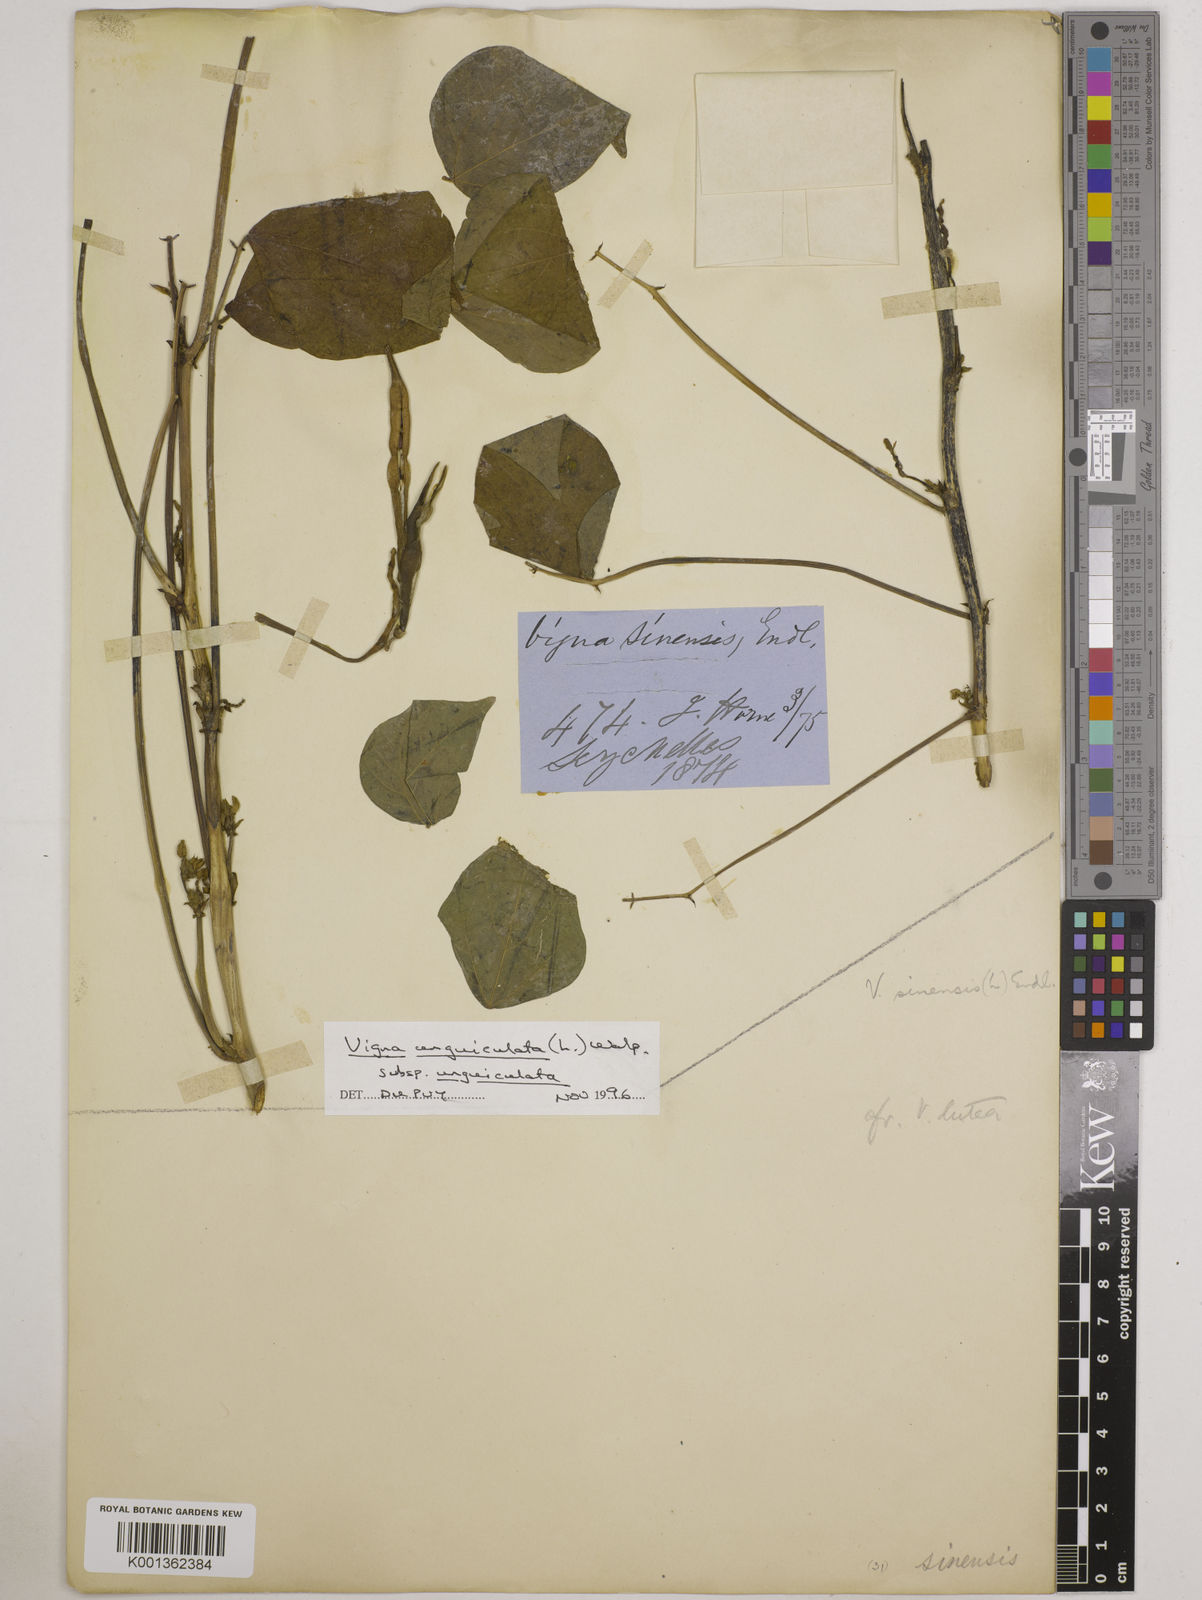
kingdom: Plantae
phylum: Tracheophyta
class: Magnoliopsida
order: Fabales
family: Fabaceae
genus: Vigna
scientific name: Vigna
